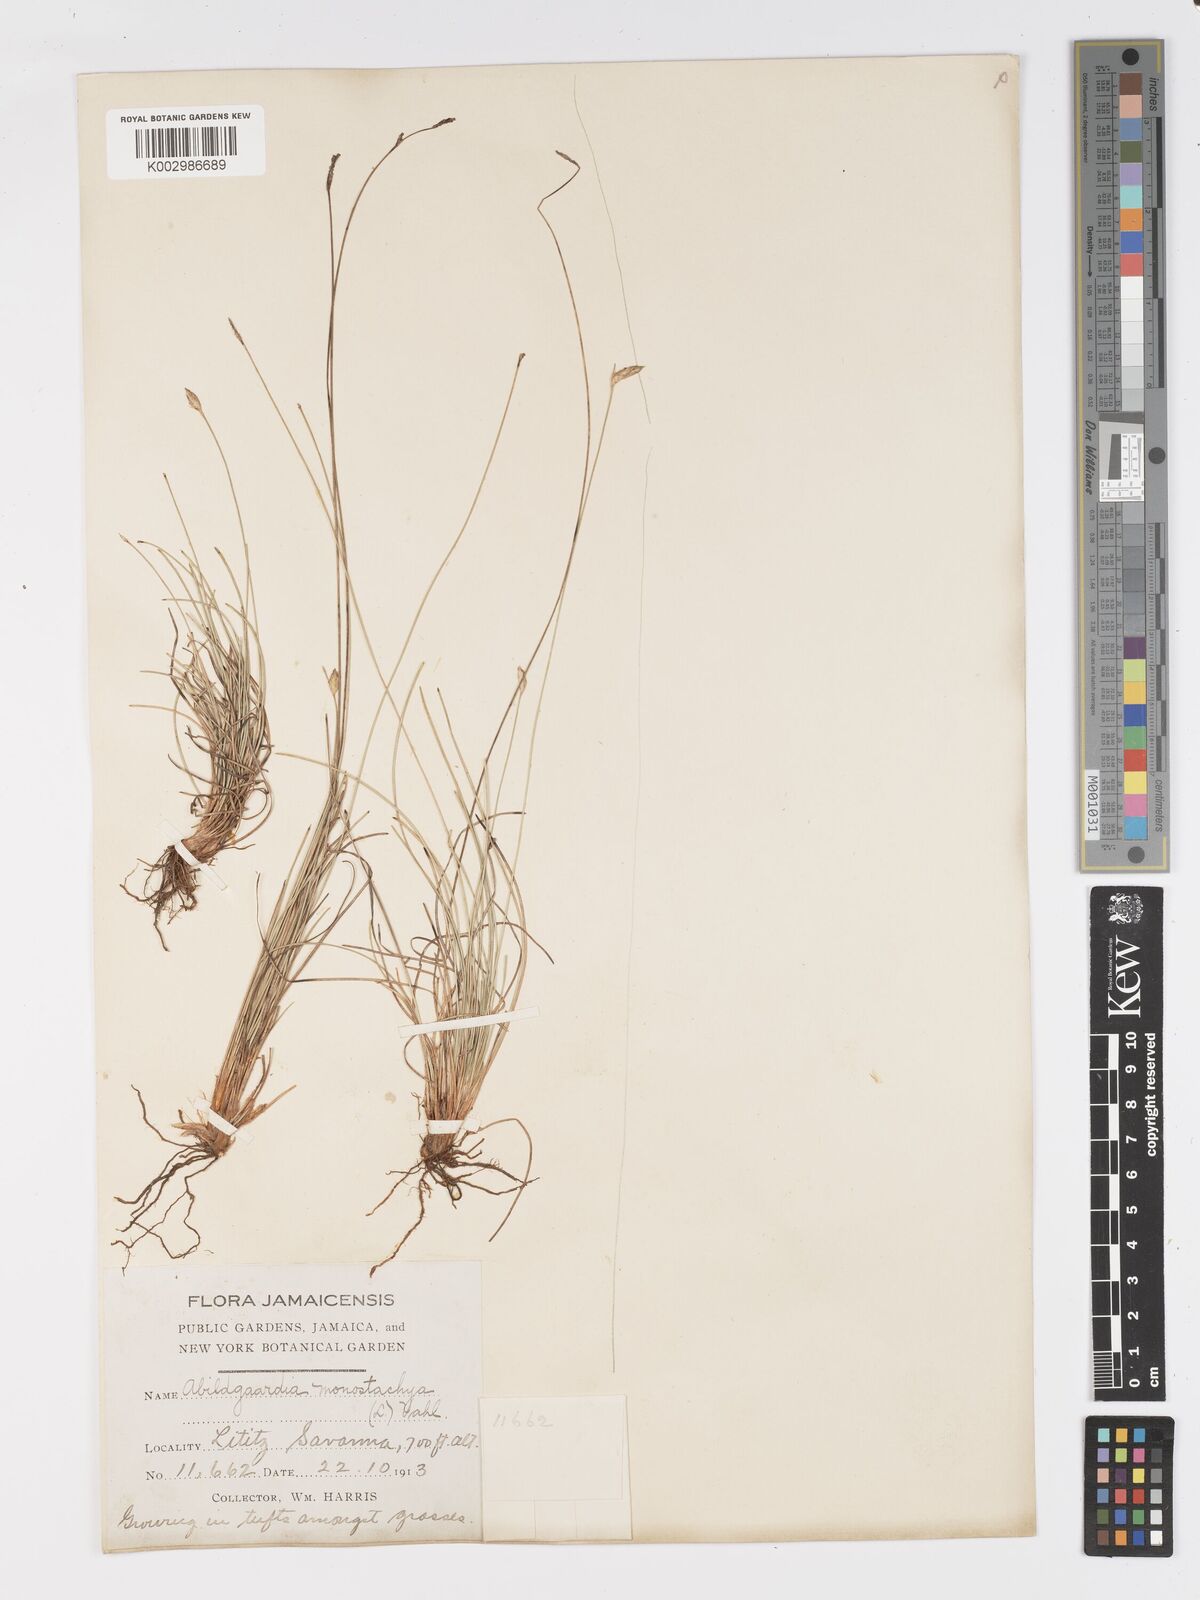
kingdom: Plantae
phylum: Tracheophyta
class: Liliopsida
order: Poales
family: Cyperaceae
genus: Abildgaardia
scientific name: Abildgaardia ovata
